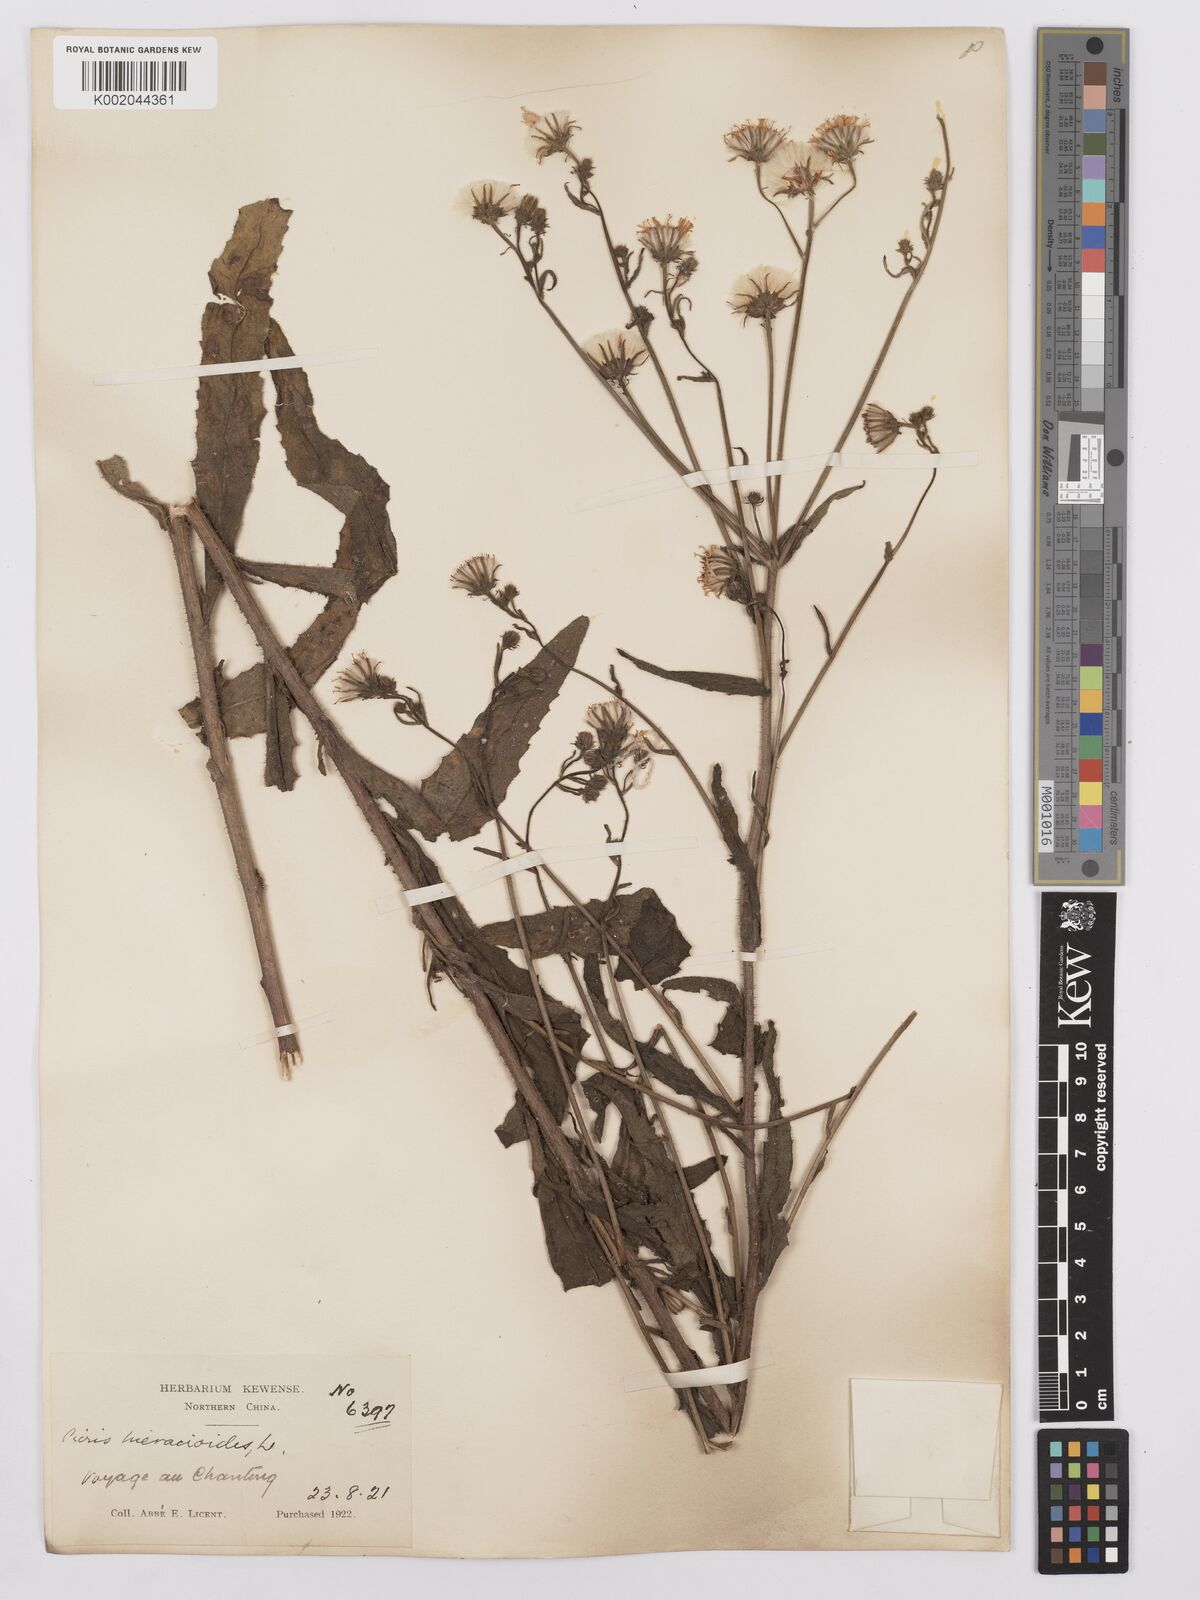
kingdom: Plantae
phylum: Tracheophyta
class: Magnoliopsida
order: Asterales
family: Asteraceae
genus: Picris
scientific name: Picris hieracioides
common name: Hawkweed oxtongue
